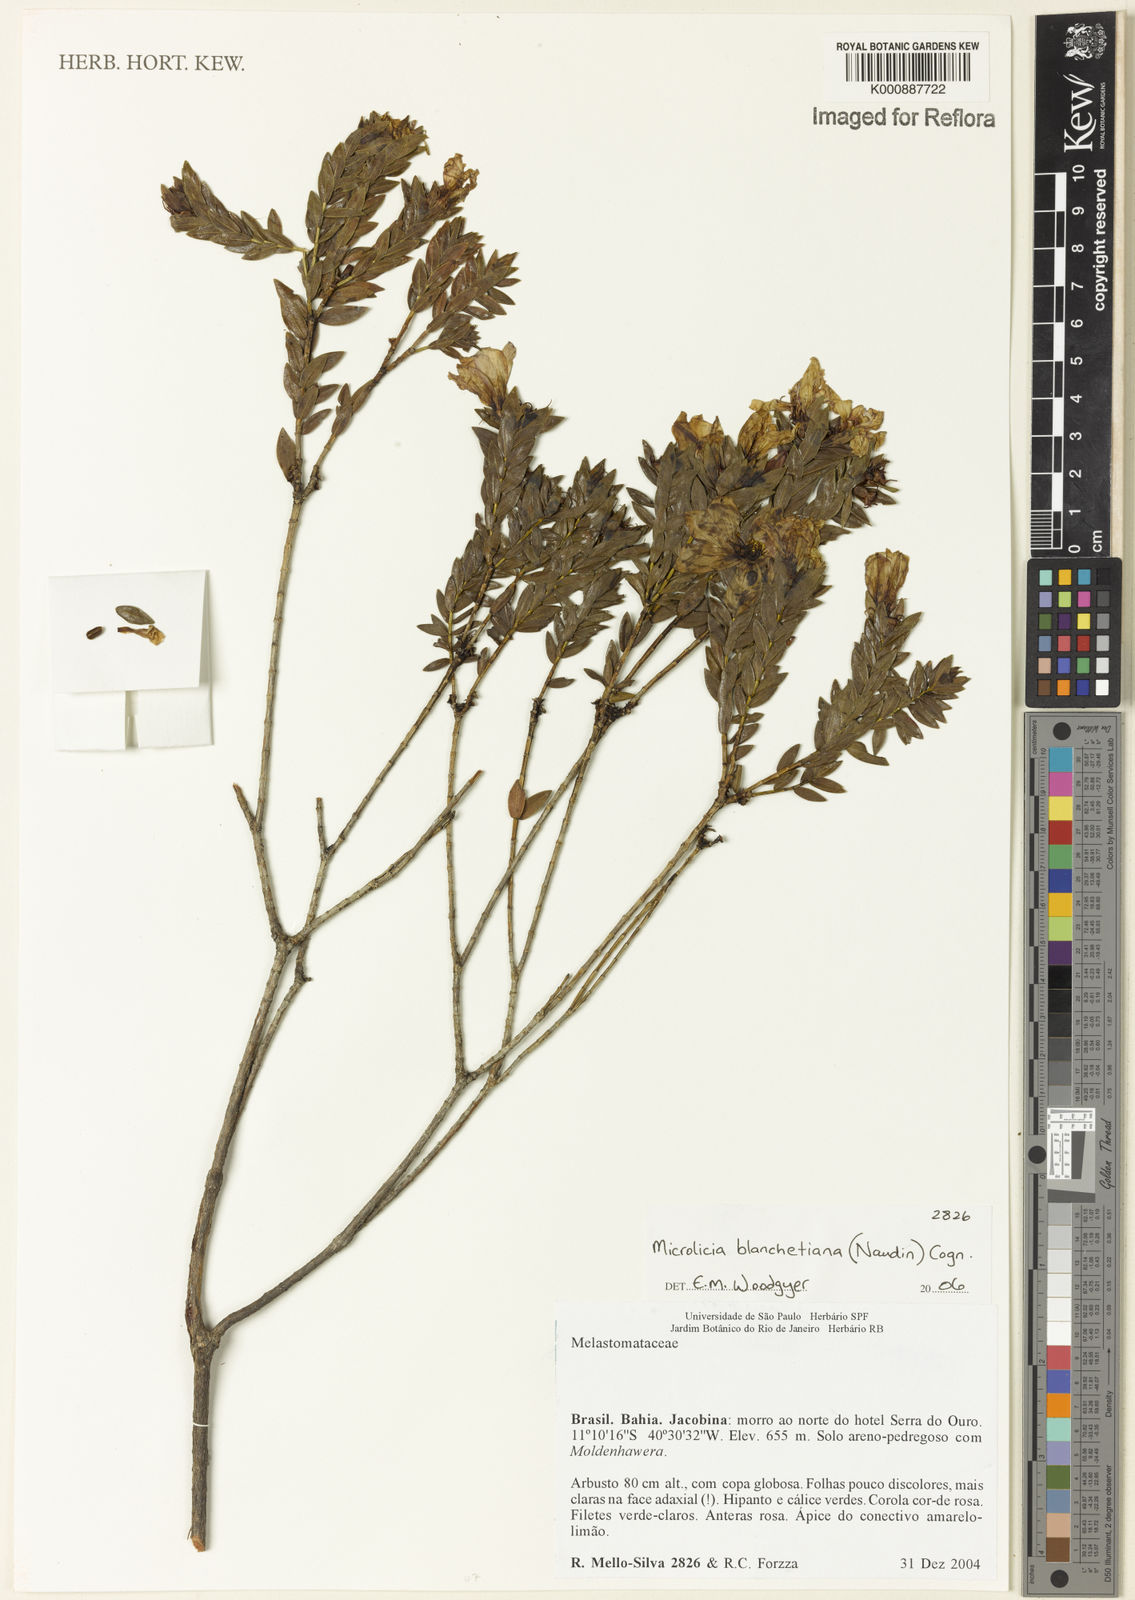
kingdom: Plantae
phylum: Tracheophyta
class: Magnoliopsida
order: Myrtales
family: Melastomataceae
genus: Microlicia
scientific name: Microlicia blanchetiana
